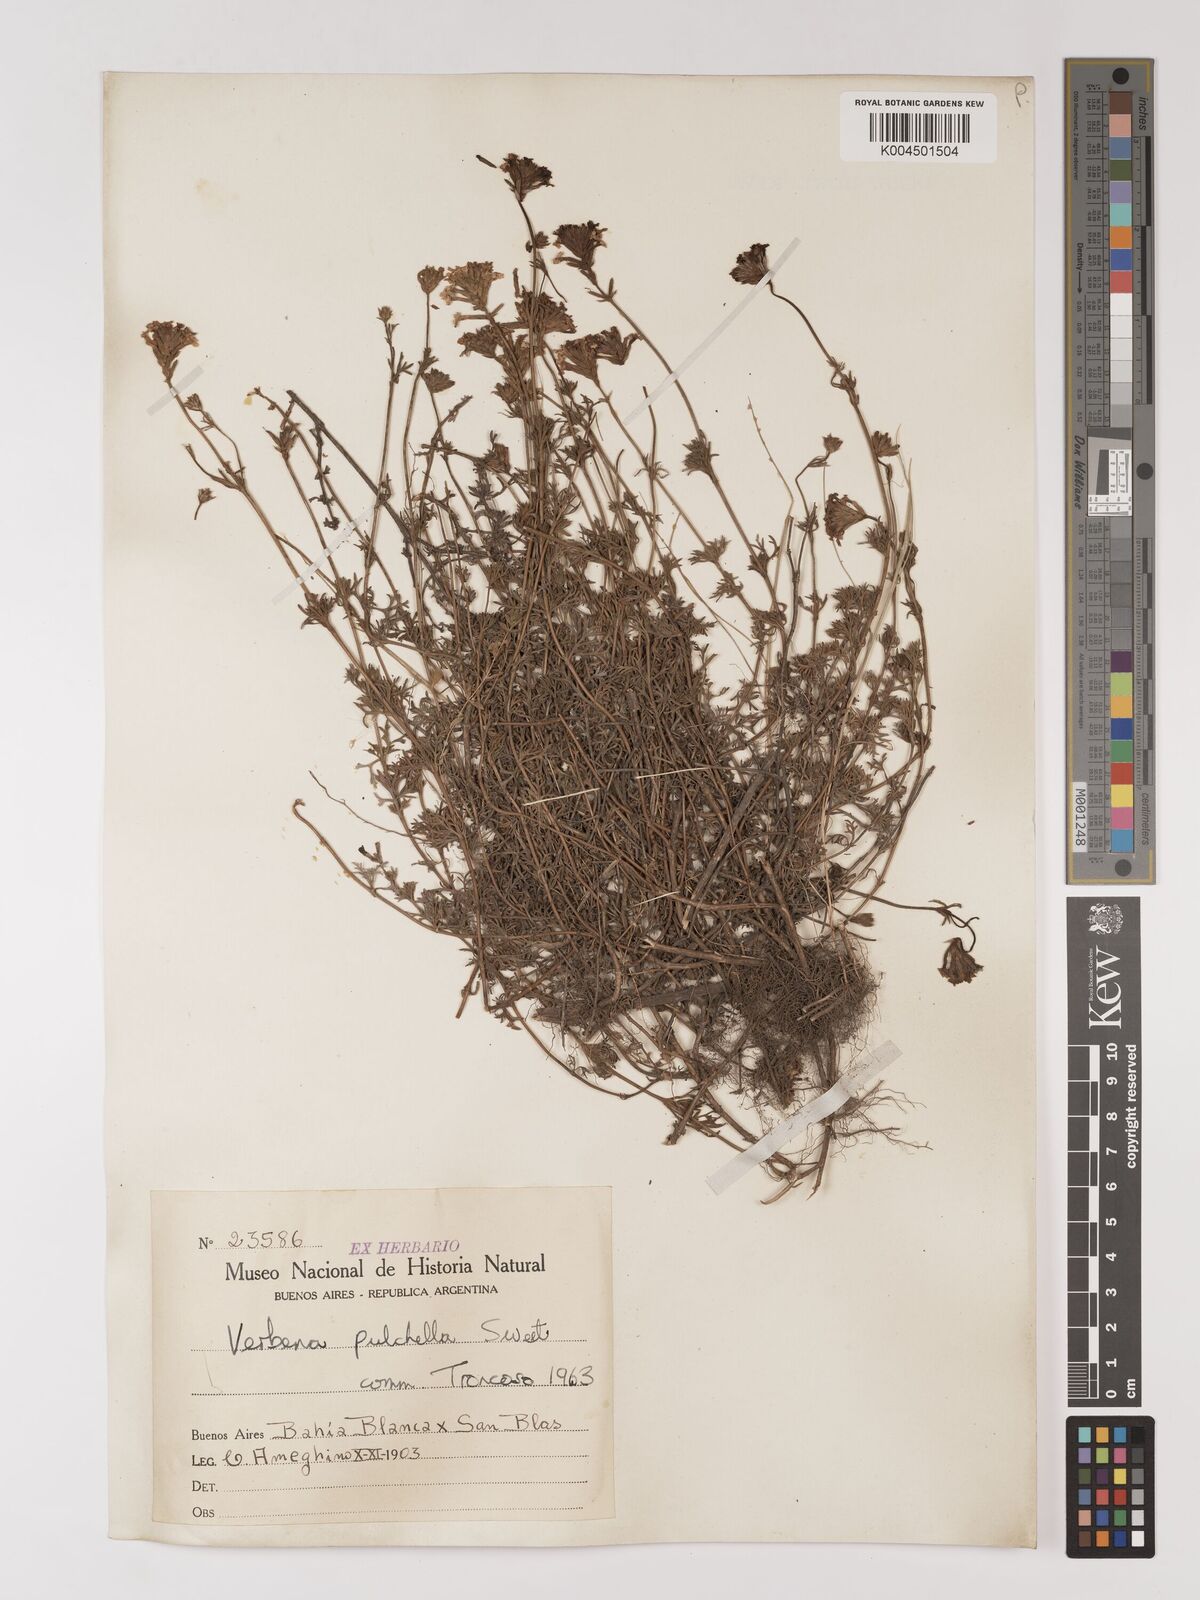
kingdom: Plantae
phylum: Tracheophyta
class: Magnoliopsida
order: Lamiales
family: Verbenaceae
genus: Verbena
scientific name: Verbena tenera
